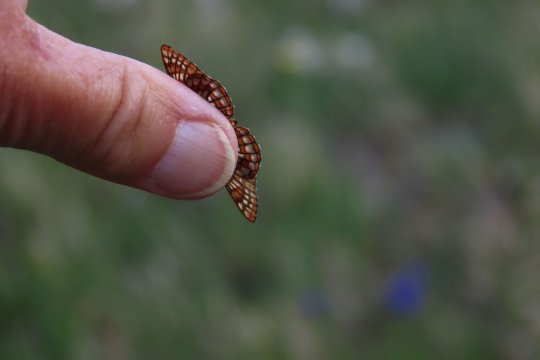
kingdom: Animalia
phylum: Arthropoda
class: Insecta
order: Lepidoptera
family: Nymphalidae
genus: Occidryas
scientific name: Occidryas anicia
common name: Anicia Checkerspot
